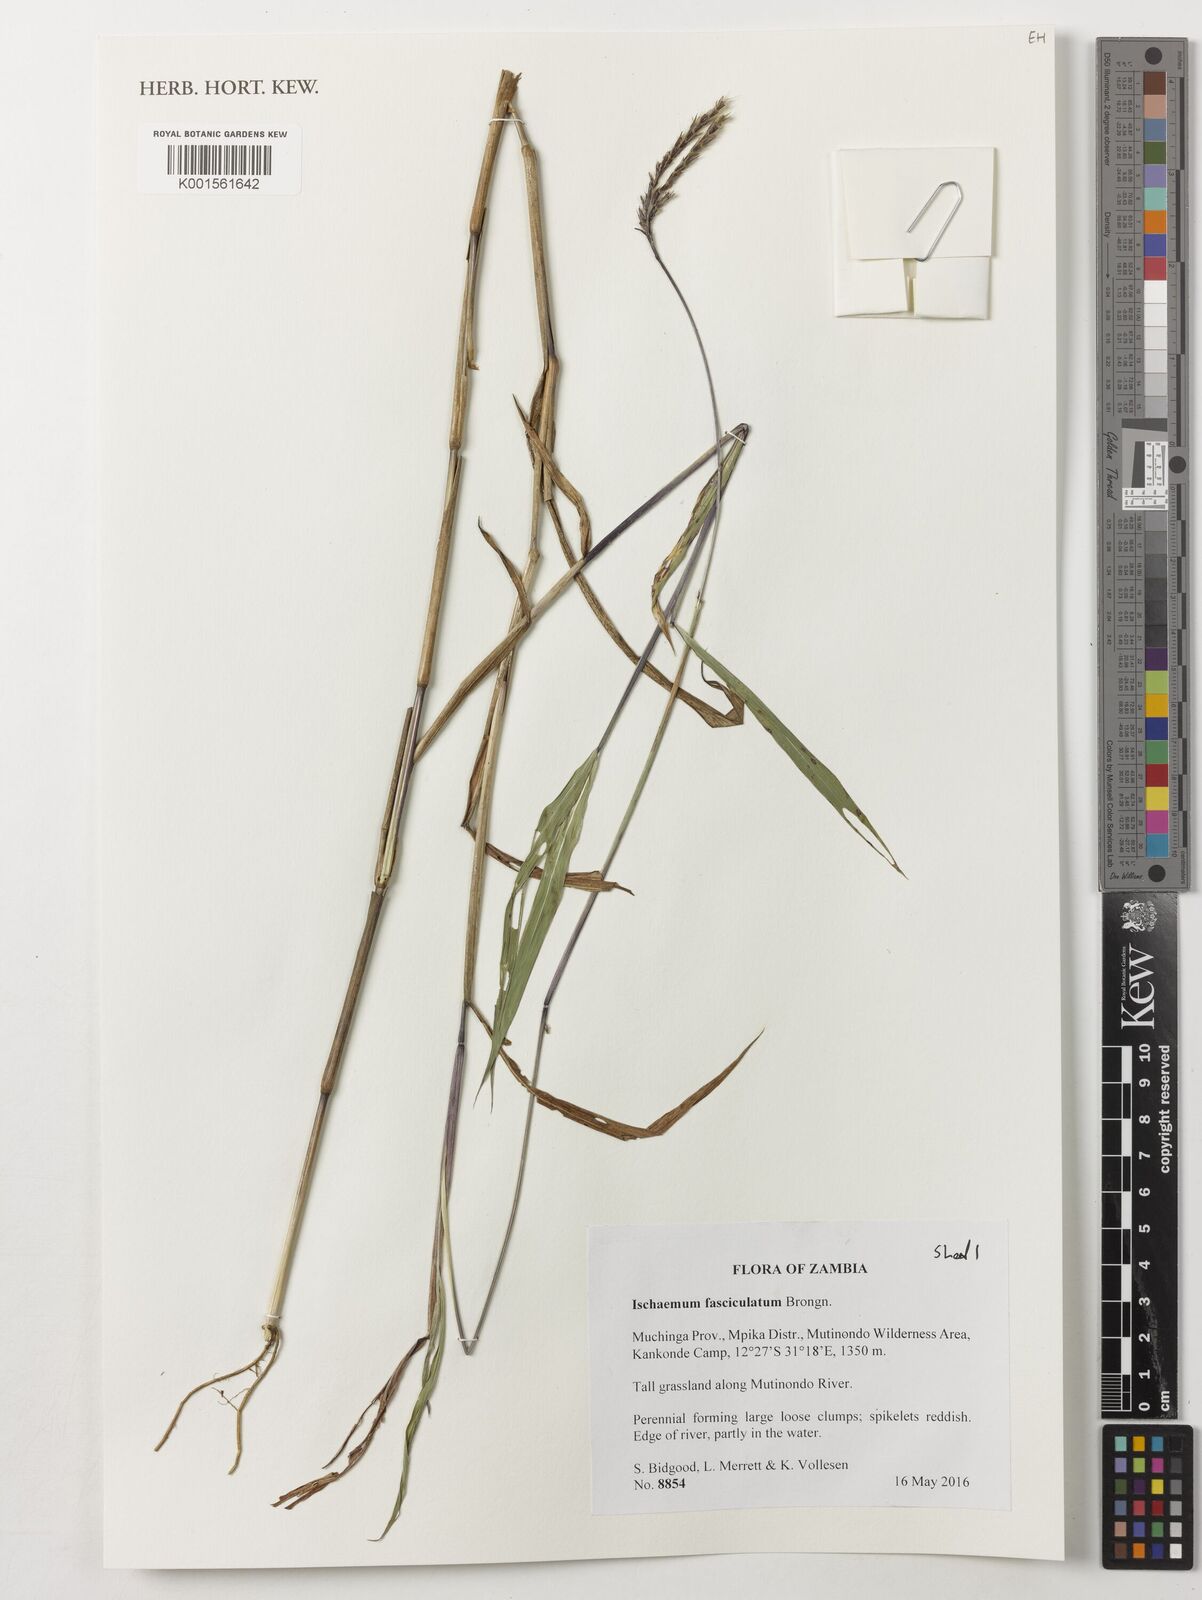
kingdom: Plantae
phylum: Tracheophyta
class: Liliopsida
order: Poales
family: Poaceae
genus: Ischaemum
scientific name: Ischaemum polystachyum
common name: Paddle grass
